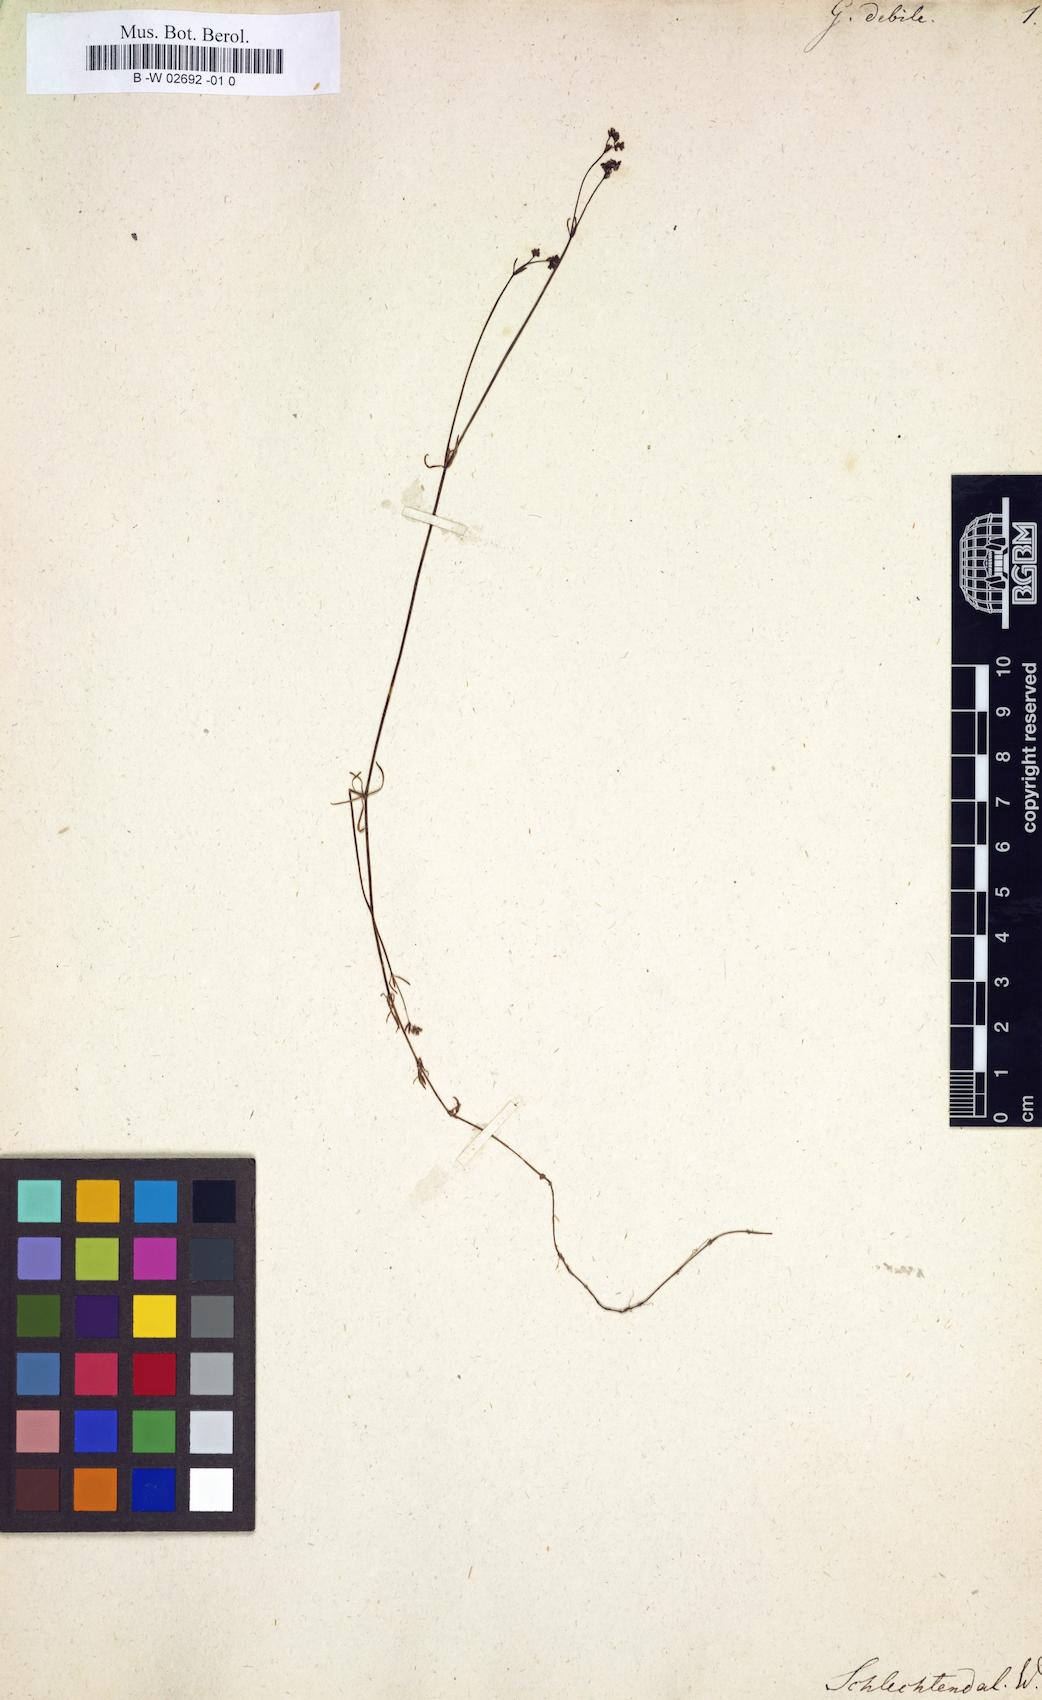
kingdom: Plantae
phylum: Tracheophyta
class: Magnoliopsida
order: Gentianales
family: Rubiaceae
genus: Galium
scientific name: Galium antarcticum
